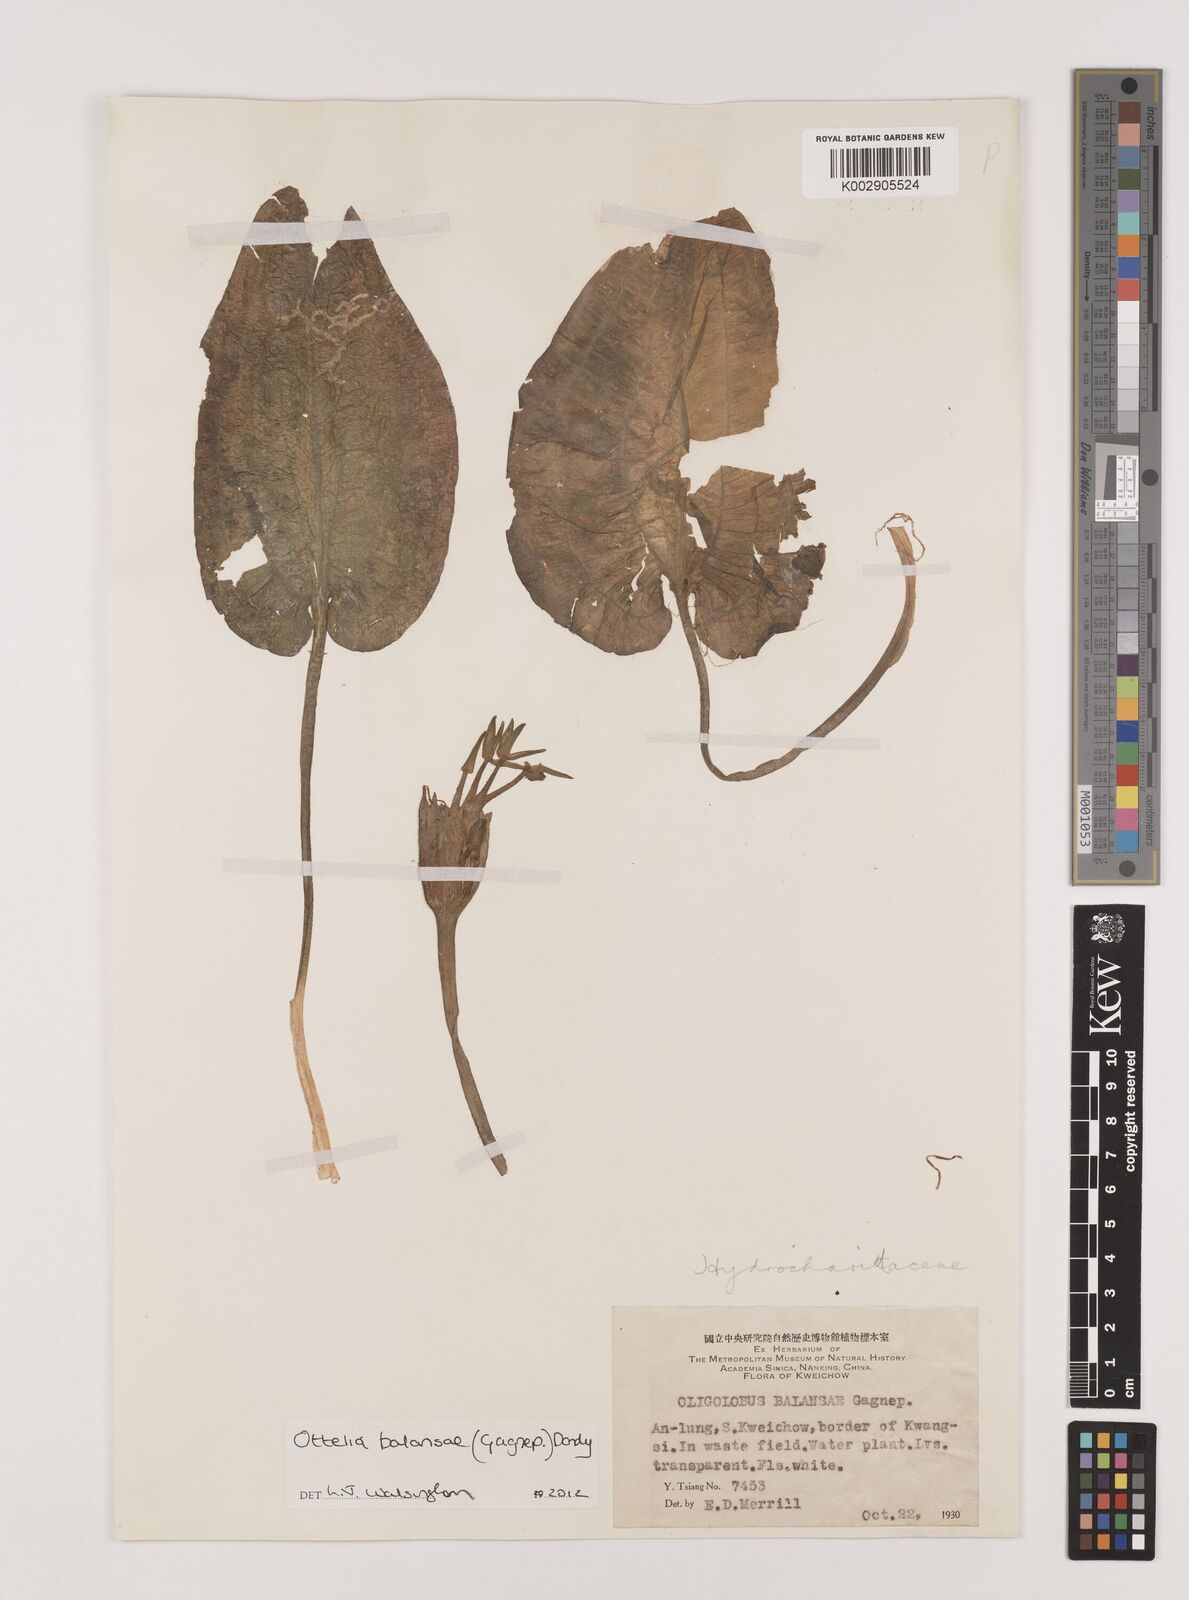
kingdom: Plantae
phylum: Tracheophyta
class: Liliopsida
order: Alismatales
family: Hydrocharitaceae
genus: Ottelia
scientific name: Ottelia balansae
